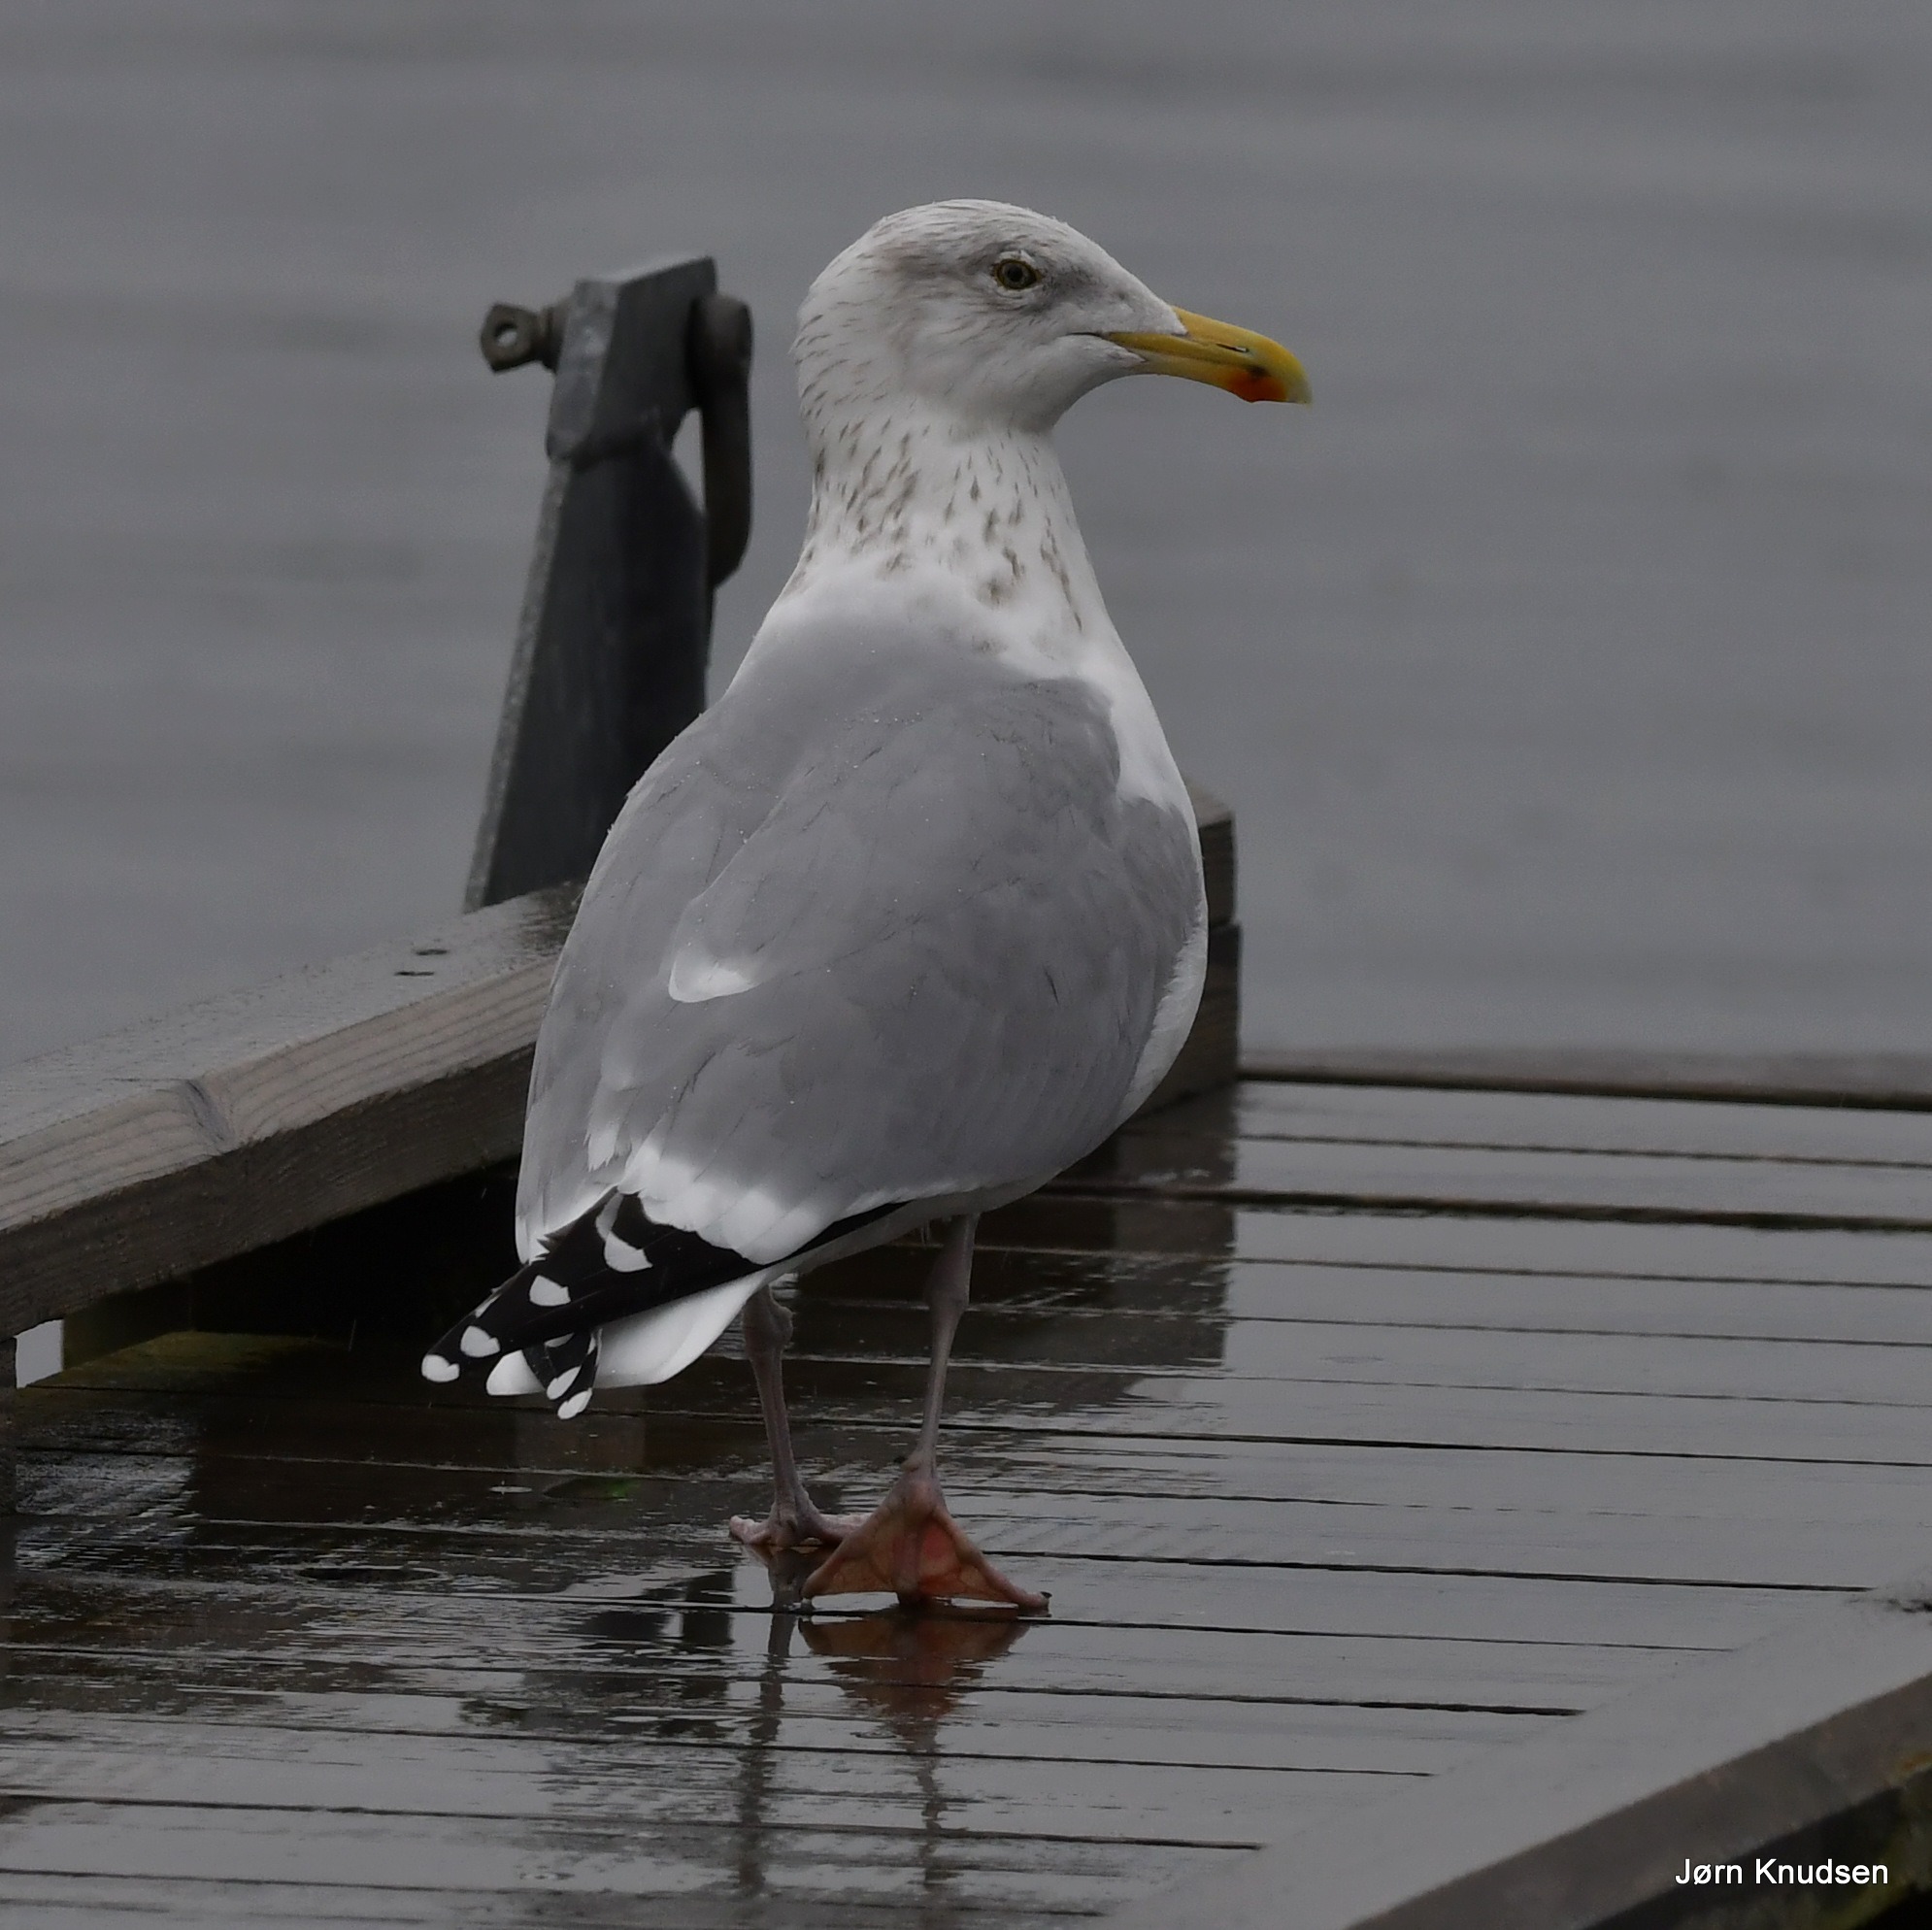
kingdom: Animalia
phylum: Chordata
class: Aves
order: Charadriiformes
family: Laridae
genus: Larus
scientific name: Larus argentatus
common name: Sølvmåge
